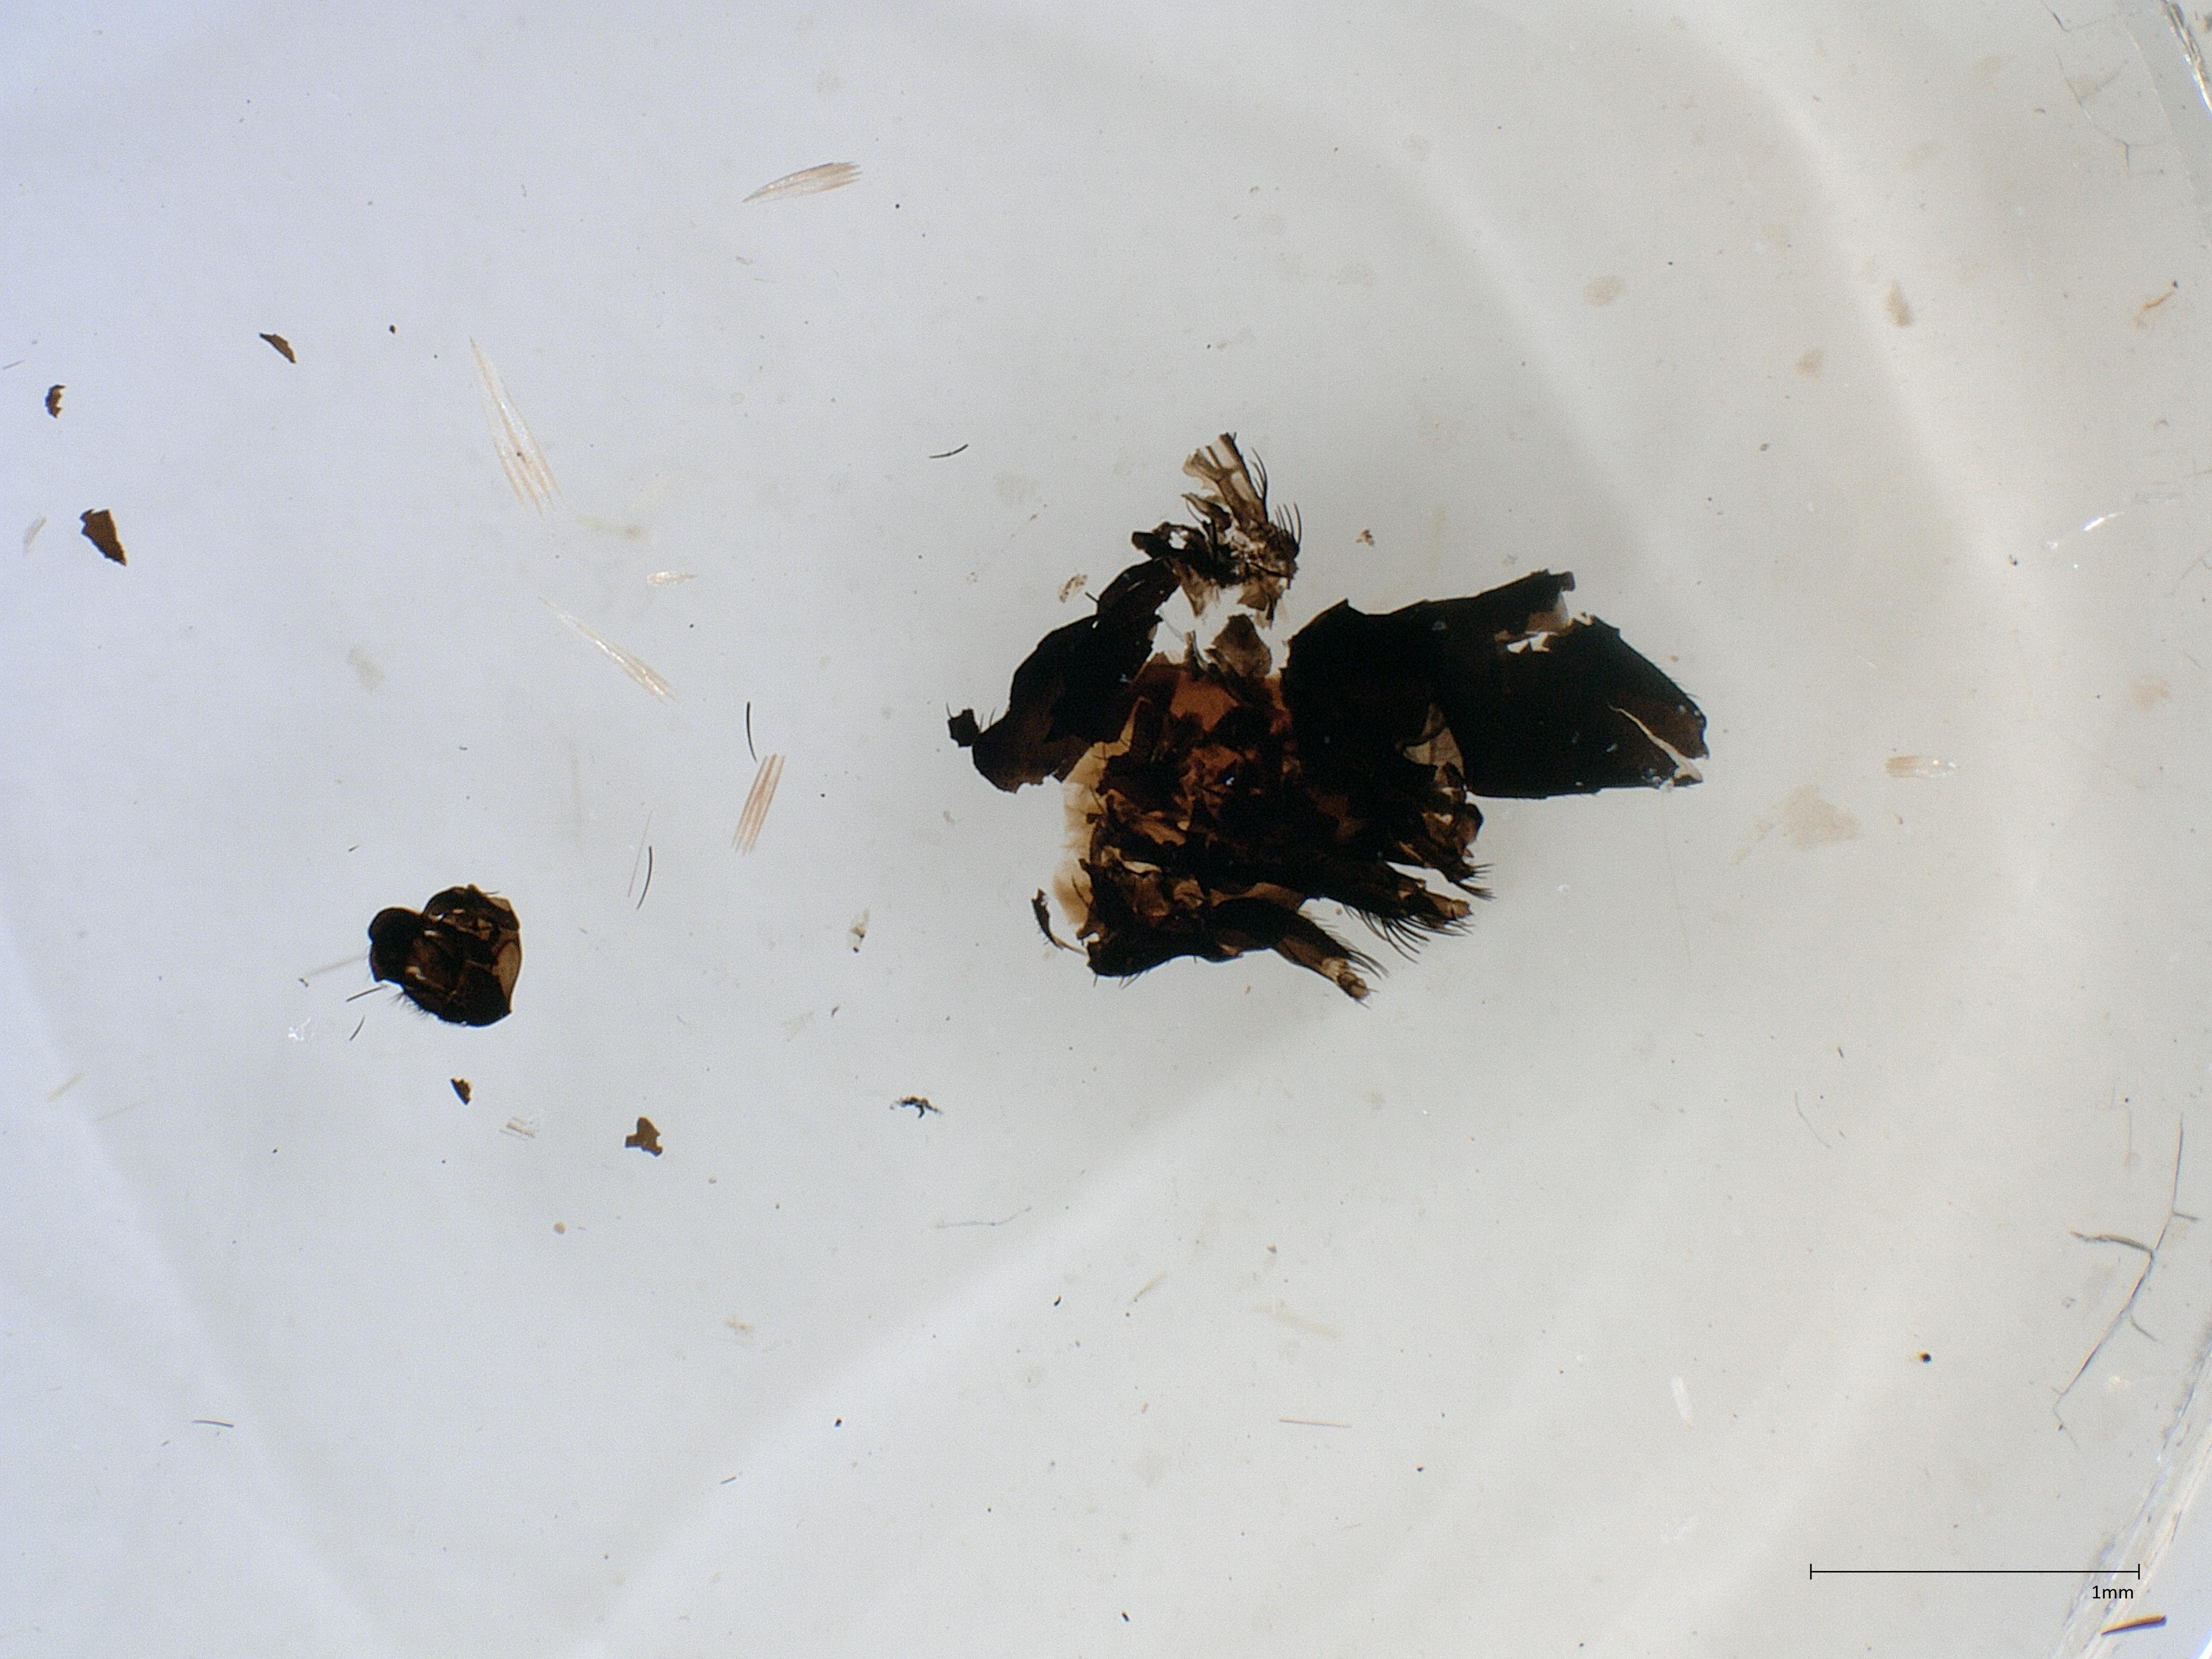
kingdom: Animalia
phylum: Arthropoda
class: Insecta
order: Diptera
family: Phoridae
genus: Phora
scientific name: Phora tincta
